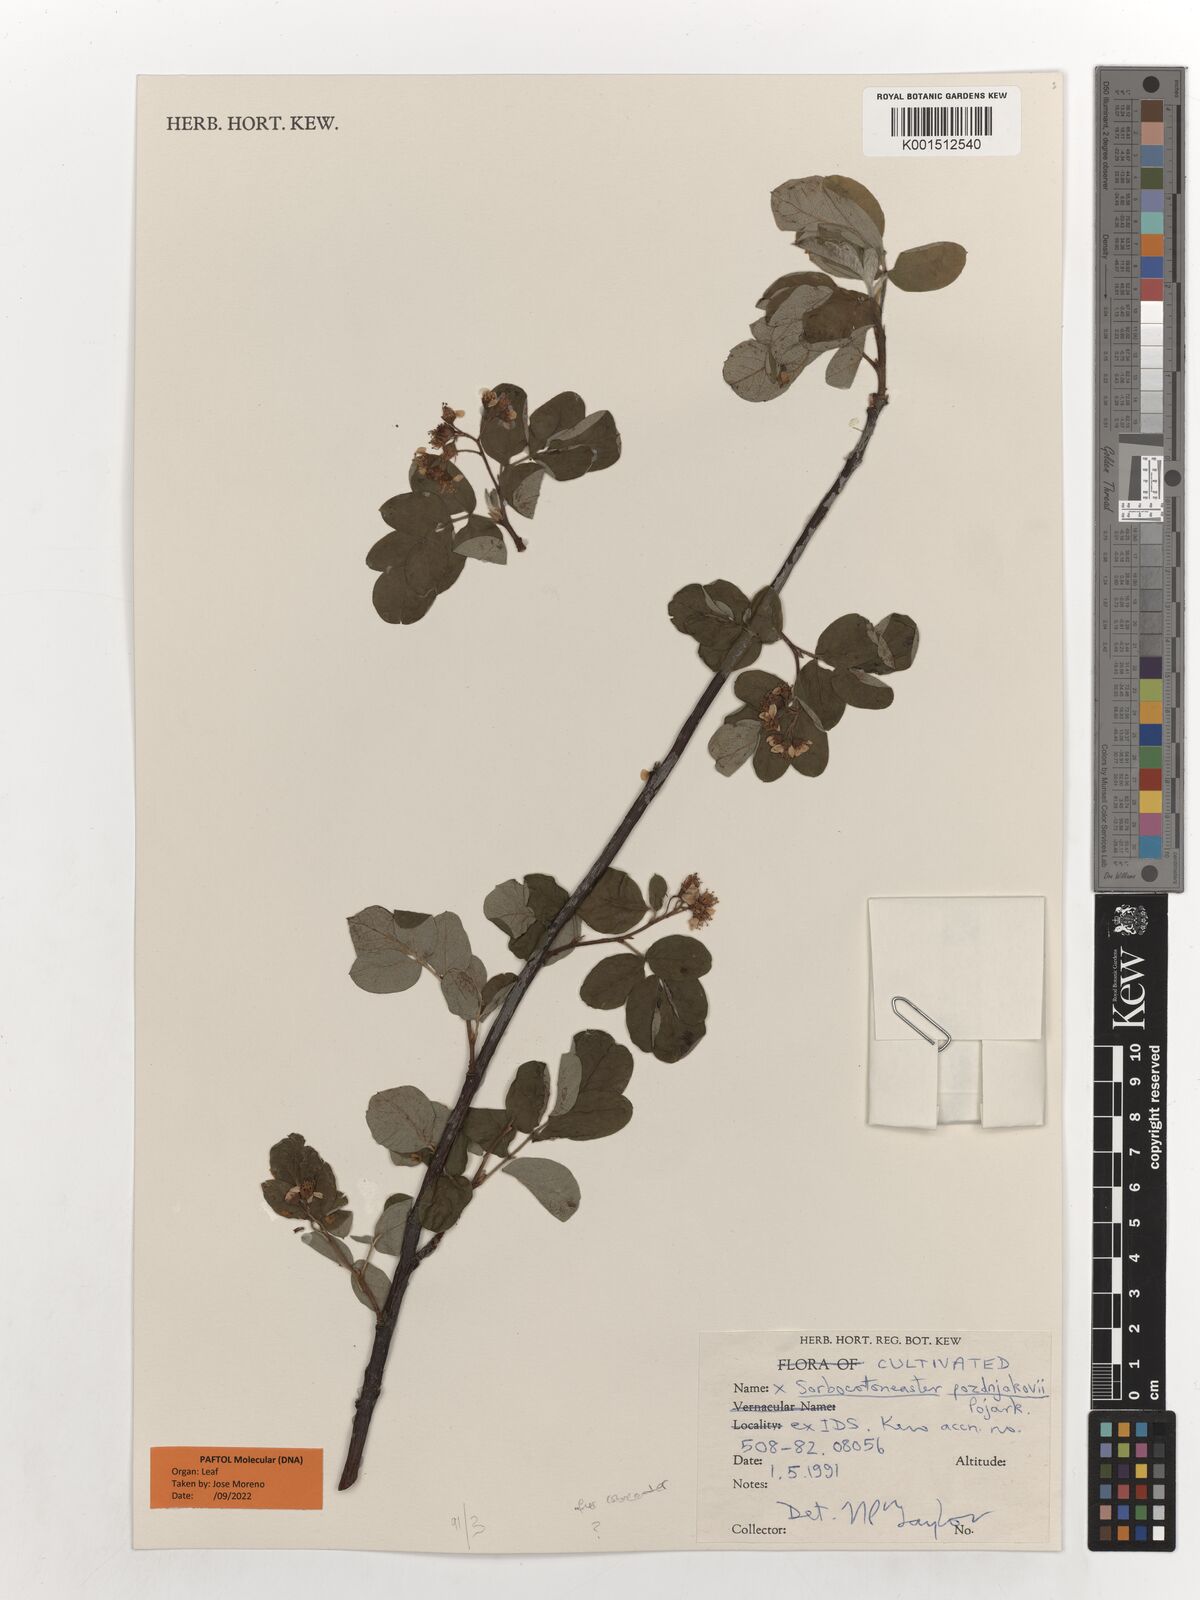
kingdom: Plantae
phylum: Tracheophyta
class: Magnoliopsida
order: Rosales
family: Rosaceae
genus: Sorbocotoneaster
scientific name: Sorbocotoneaster pozdnjakovii
